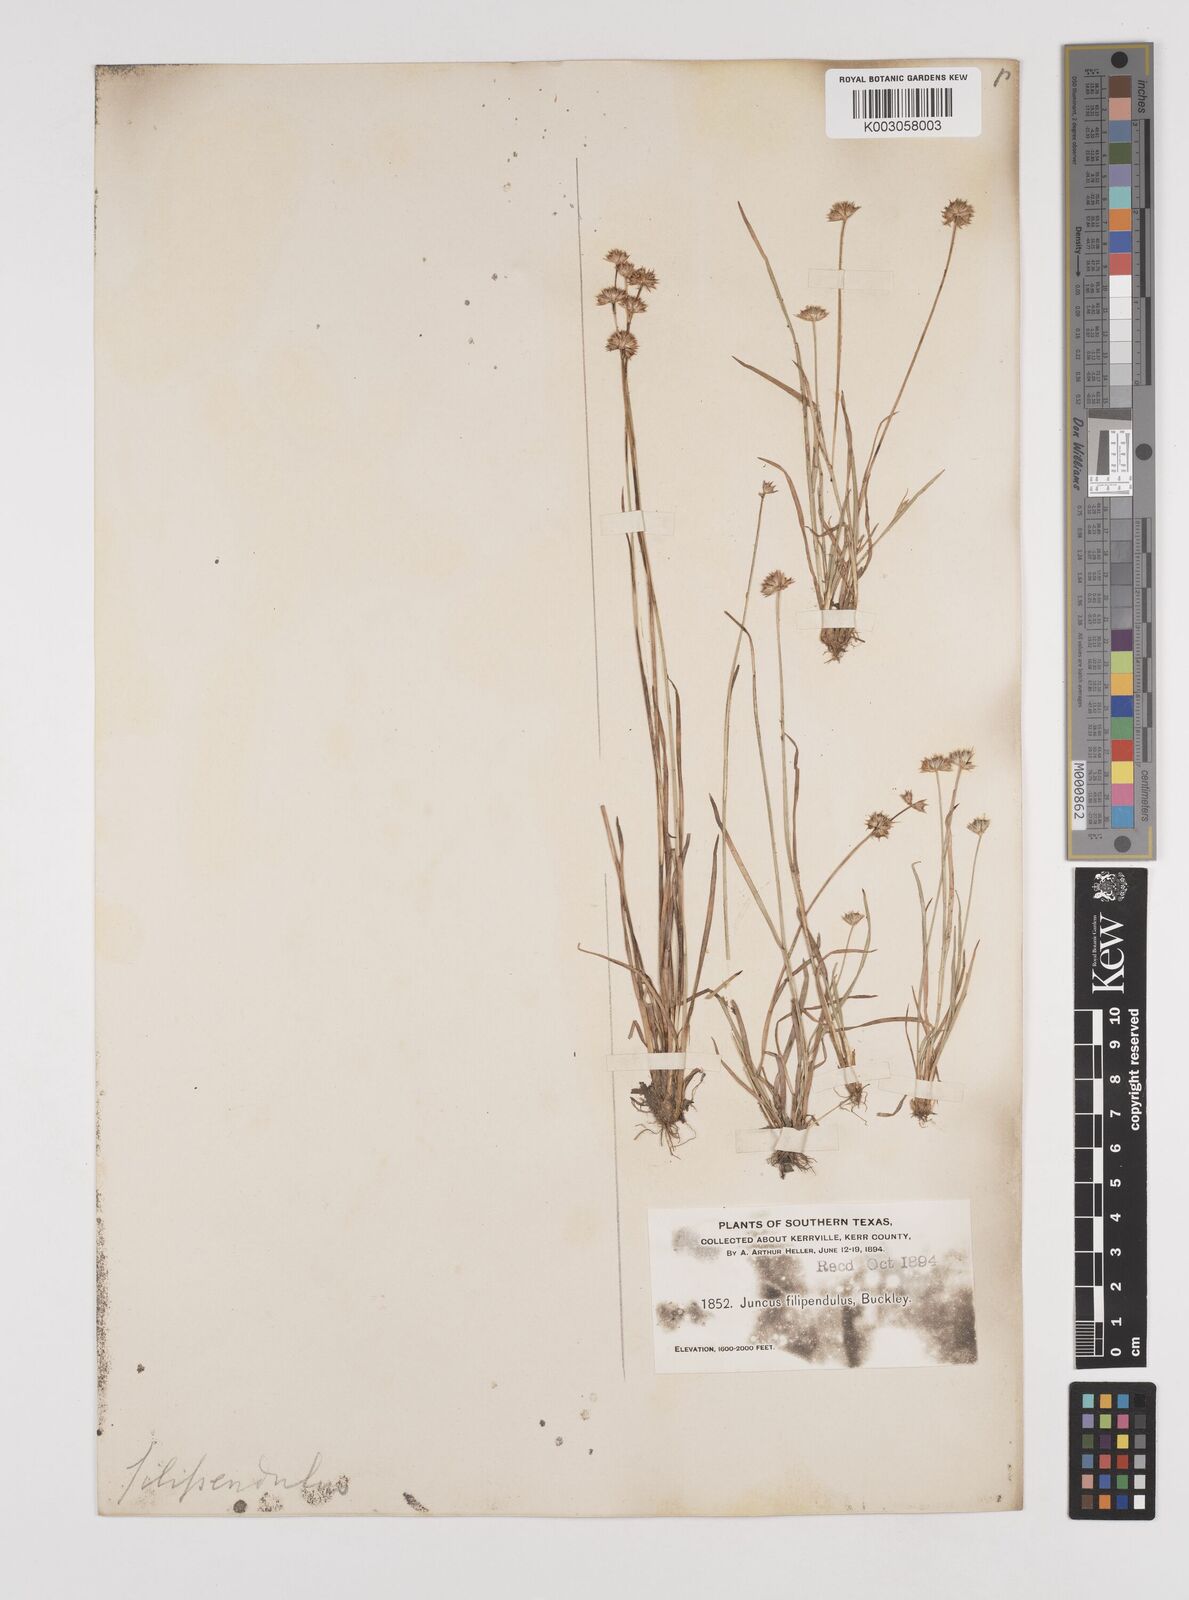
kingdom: Plantae
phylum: Tracheophyta
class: Liliopsida
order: Poales
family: Juncaceae
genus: Juncus
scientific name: Juncus filipendulus
